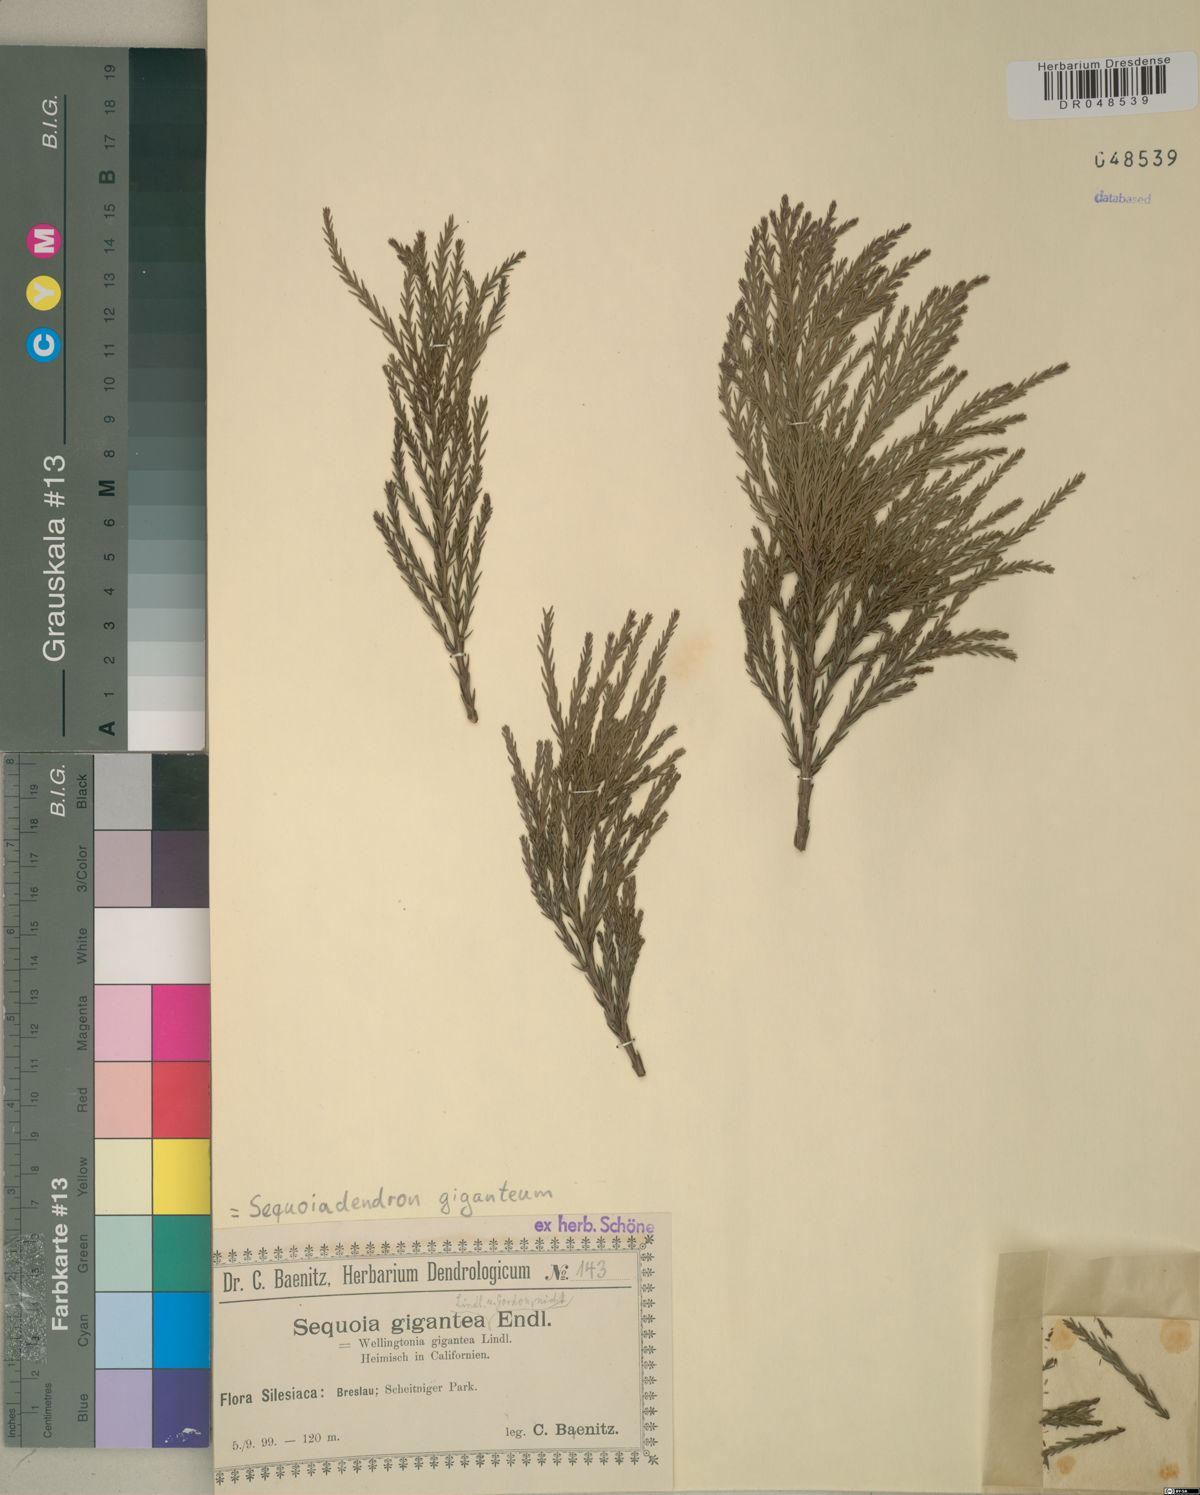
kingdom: Plantae
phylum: Tracheophyta
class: Pinopsida
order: Pinales
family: Cupressaceae
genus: Sequoiadendron
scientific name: Sequoiadendron giganteum
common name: Wellingtonia
